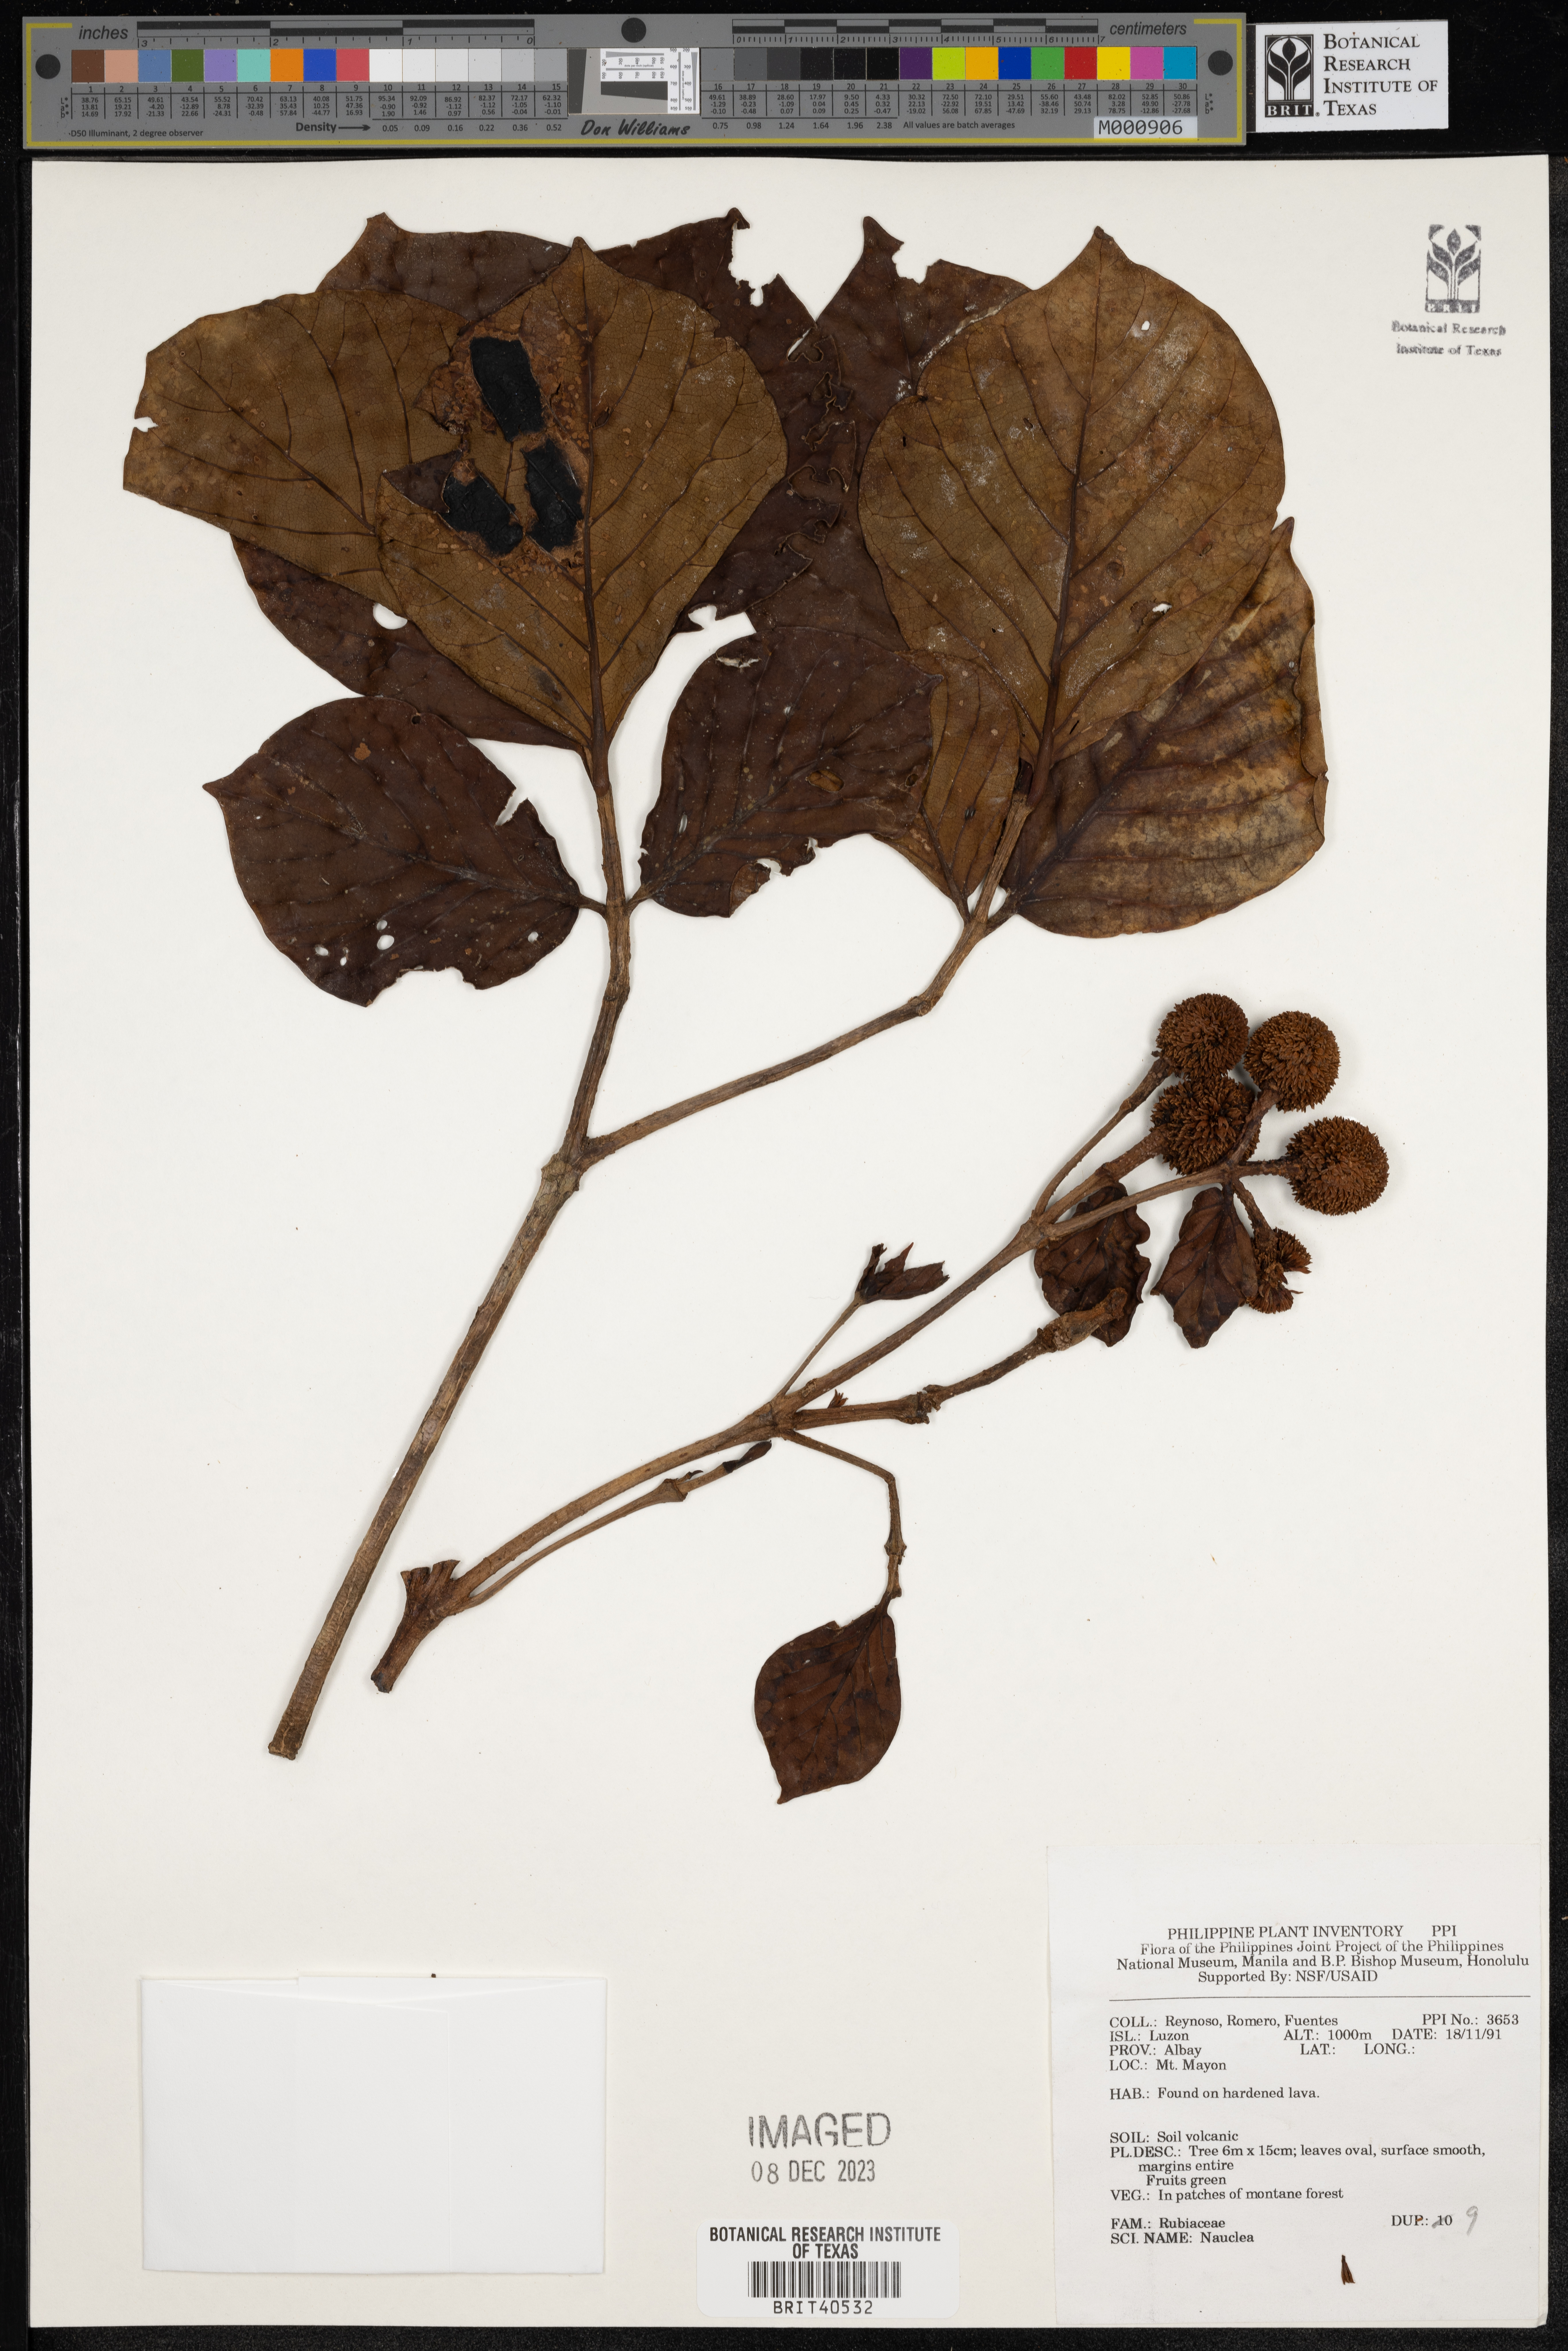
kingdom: Plantae
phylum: Tracheophyta
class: Magnoliopsida
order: Gentianales
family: Rubiaceae
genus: Nauclea
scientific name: Nauclea
